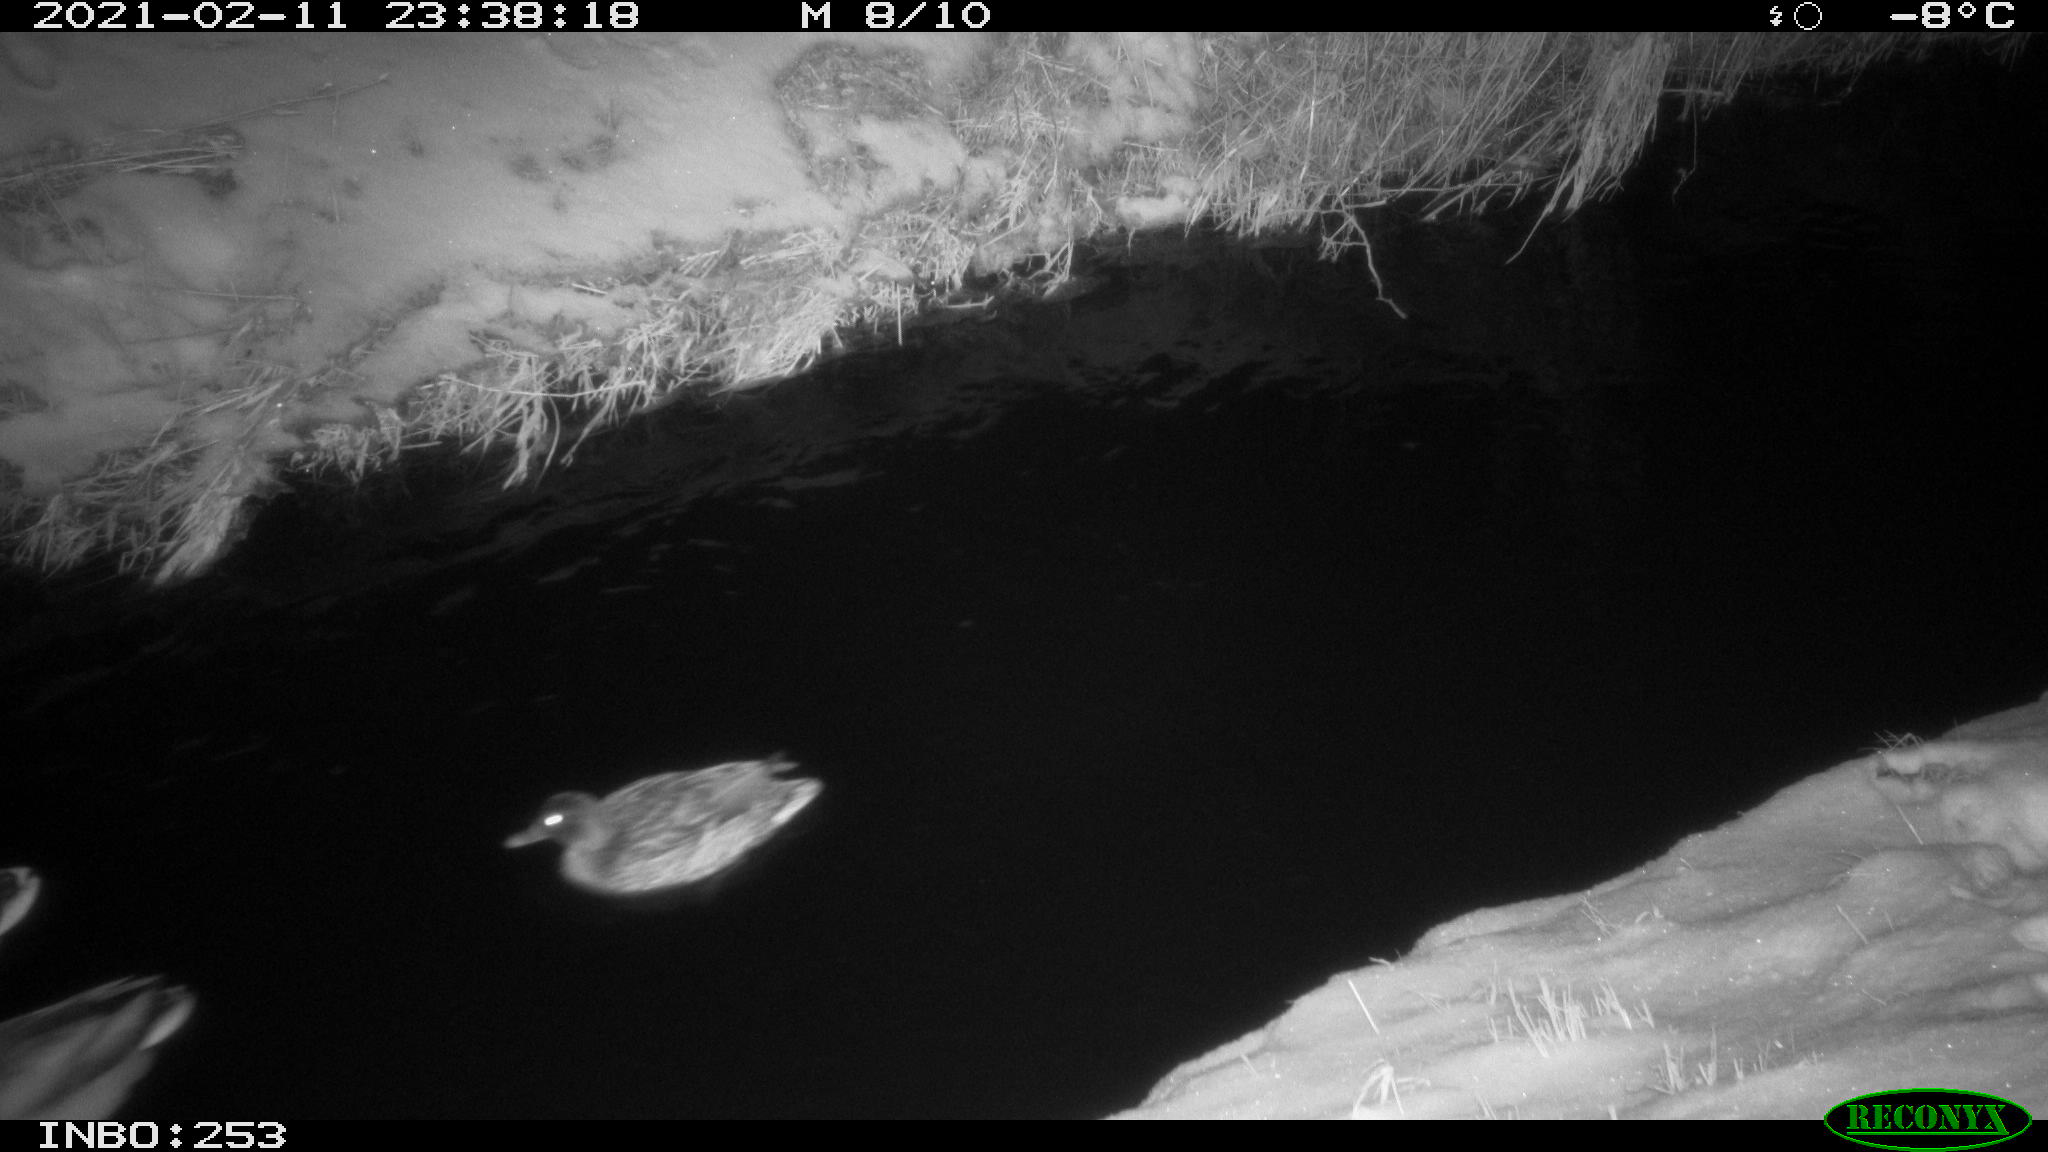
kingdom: Animalia
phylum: Chordata
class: Aves
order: Anseriformes
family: Anatidae
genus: Anas
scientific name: Anas platyrhynchos
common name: Mallard
